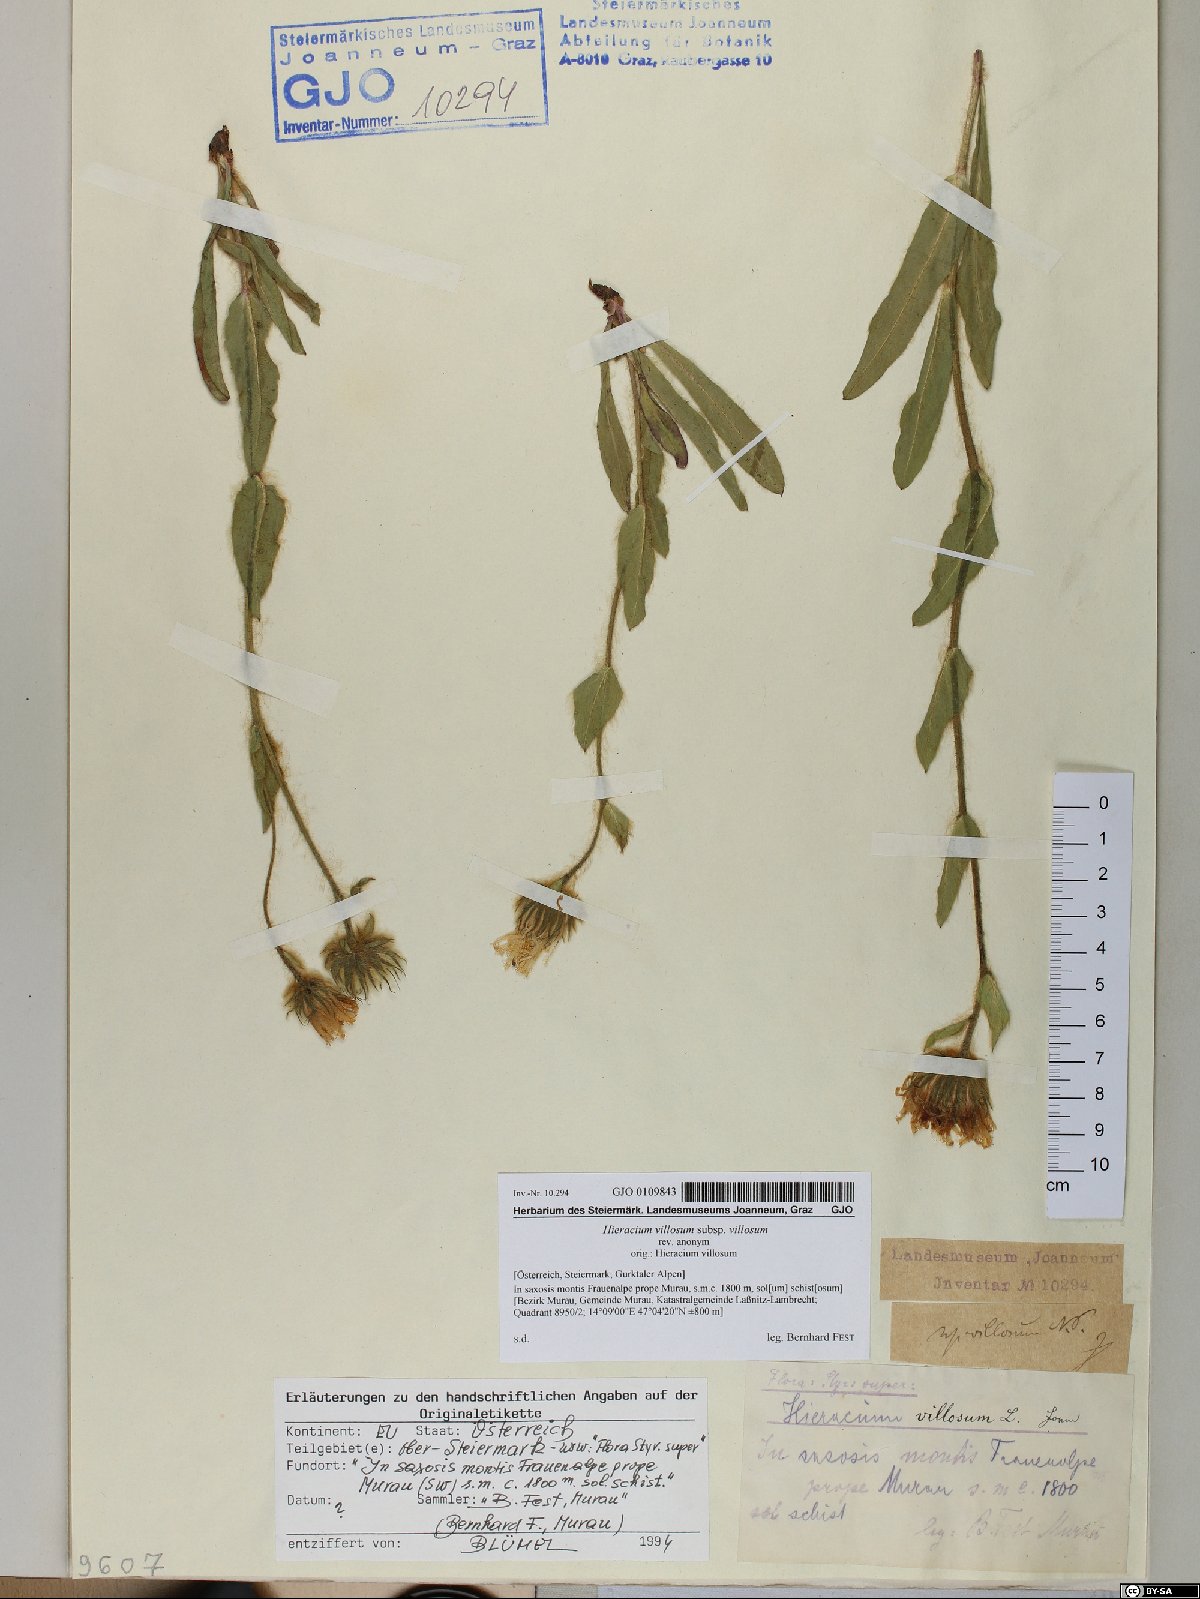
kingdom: Plantae
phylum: Tracheophyta
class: Magnoliopsida
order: Asterales
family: Asteraceae
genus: Hieracium
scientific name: Hieracium villosum
